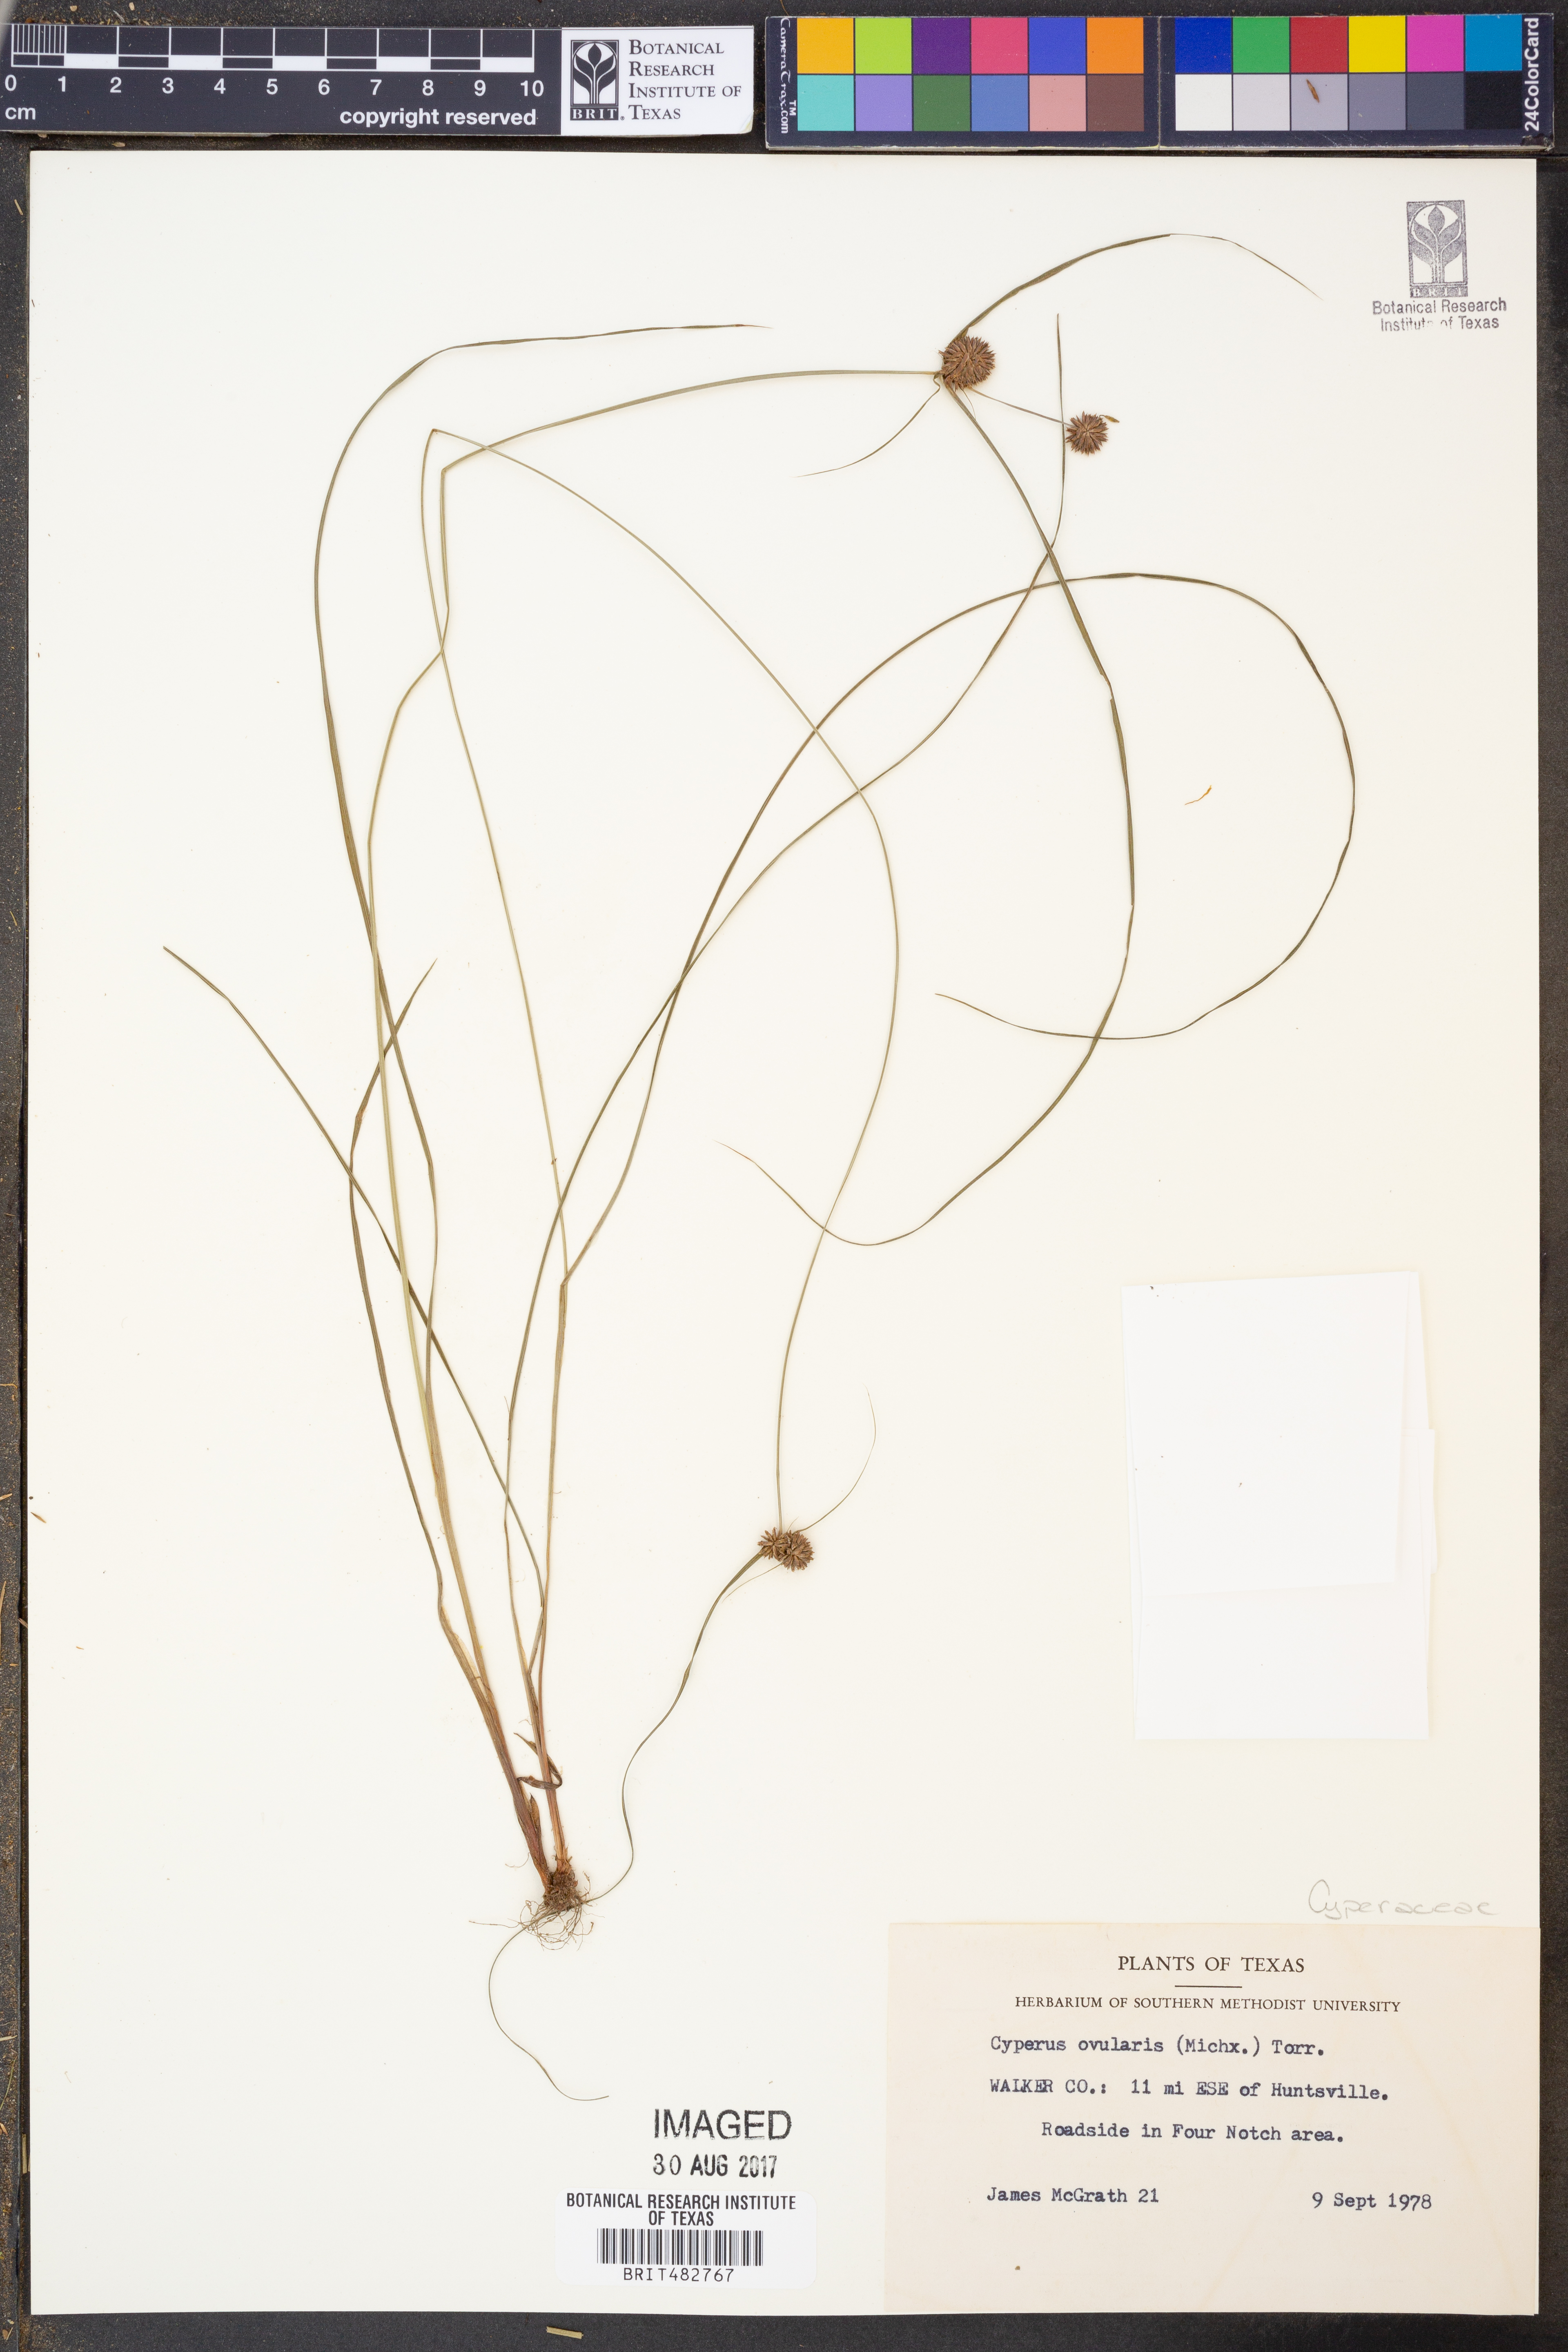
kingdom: Plantae
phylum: Tracheophyta
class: Liliopsida
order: Poales
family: Cyperaceae
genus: Cyperus
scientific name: Cyperus echinatus
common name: Teasel sedge
